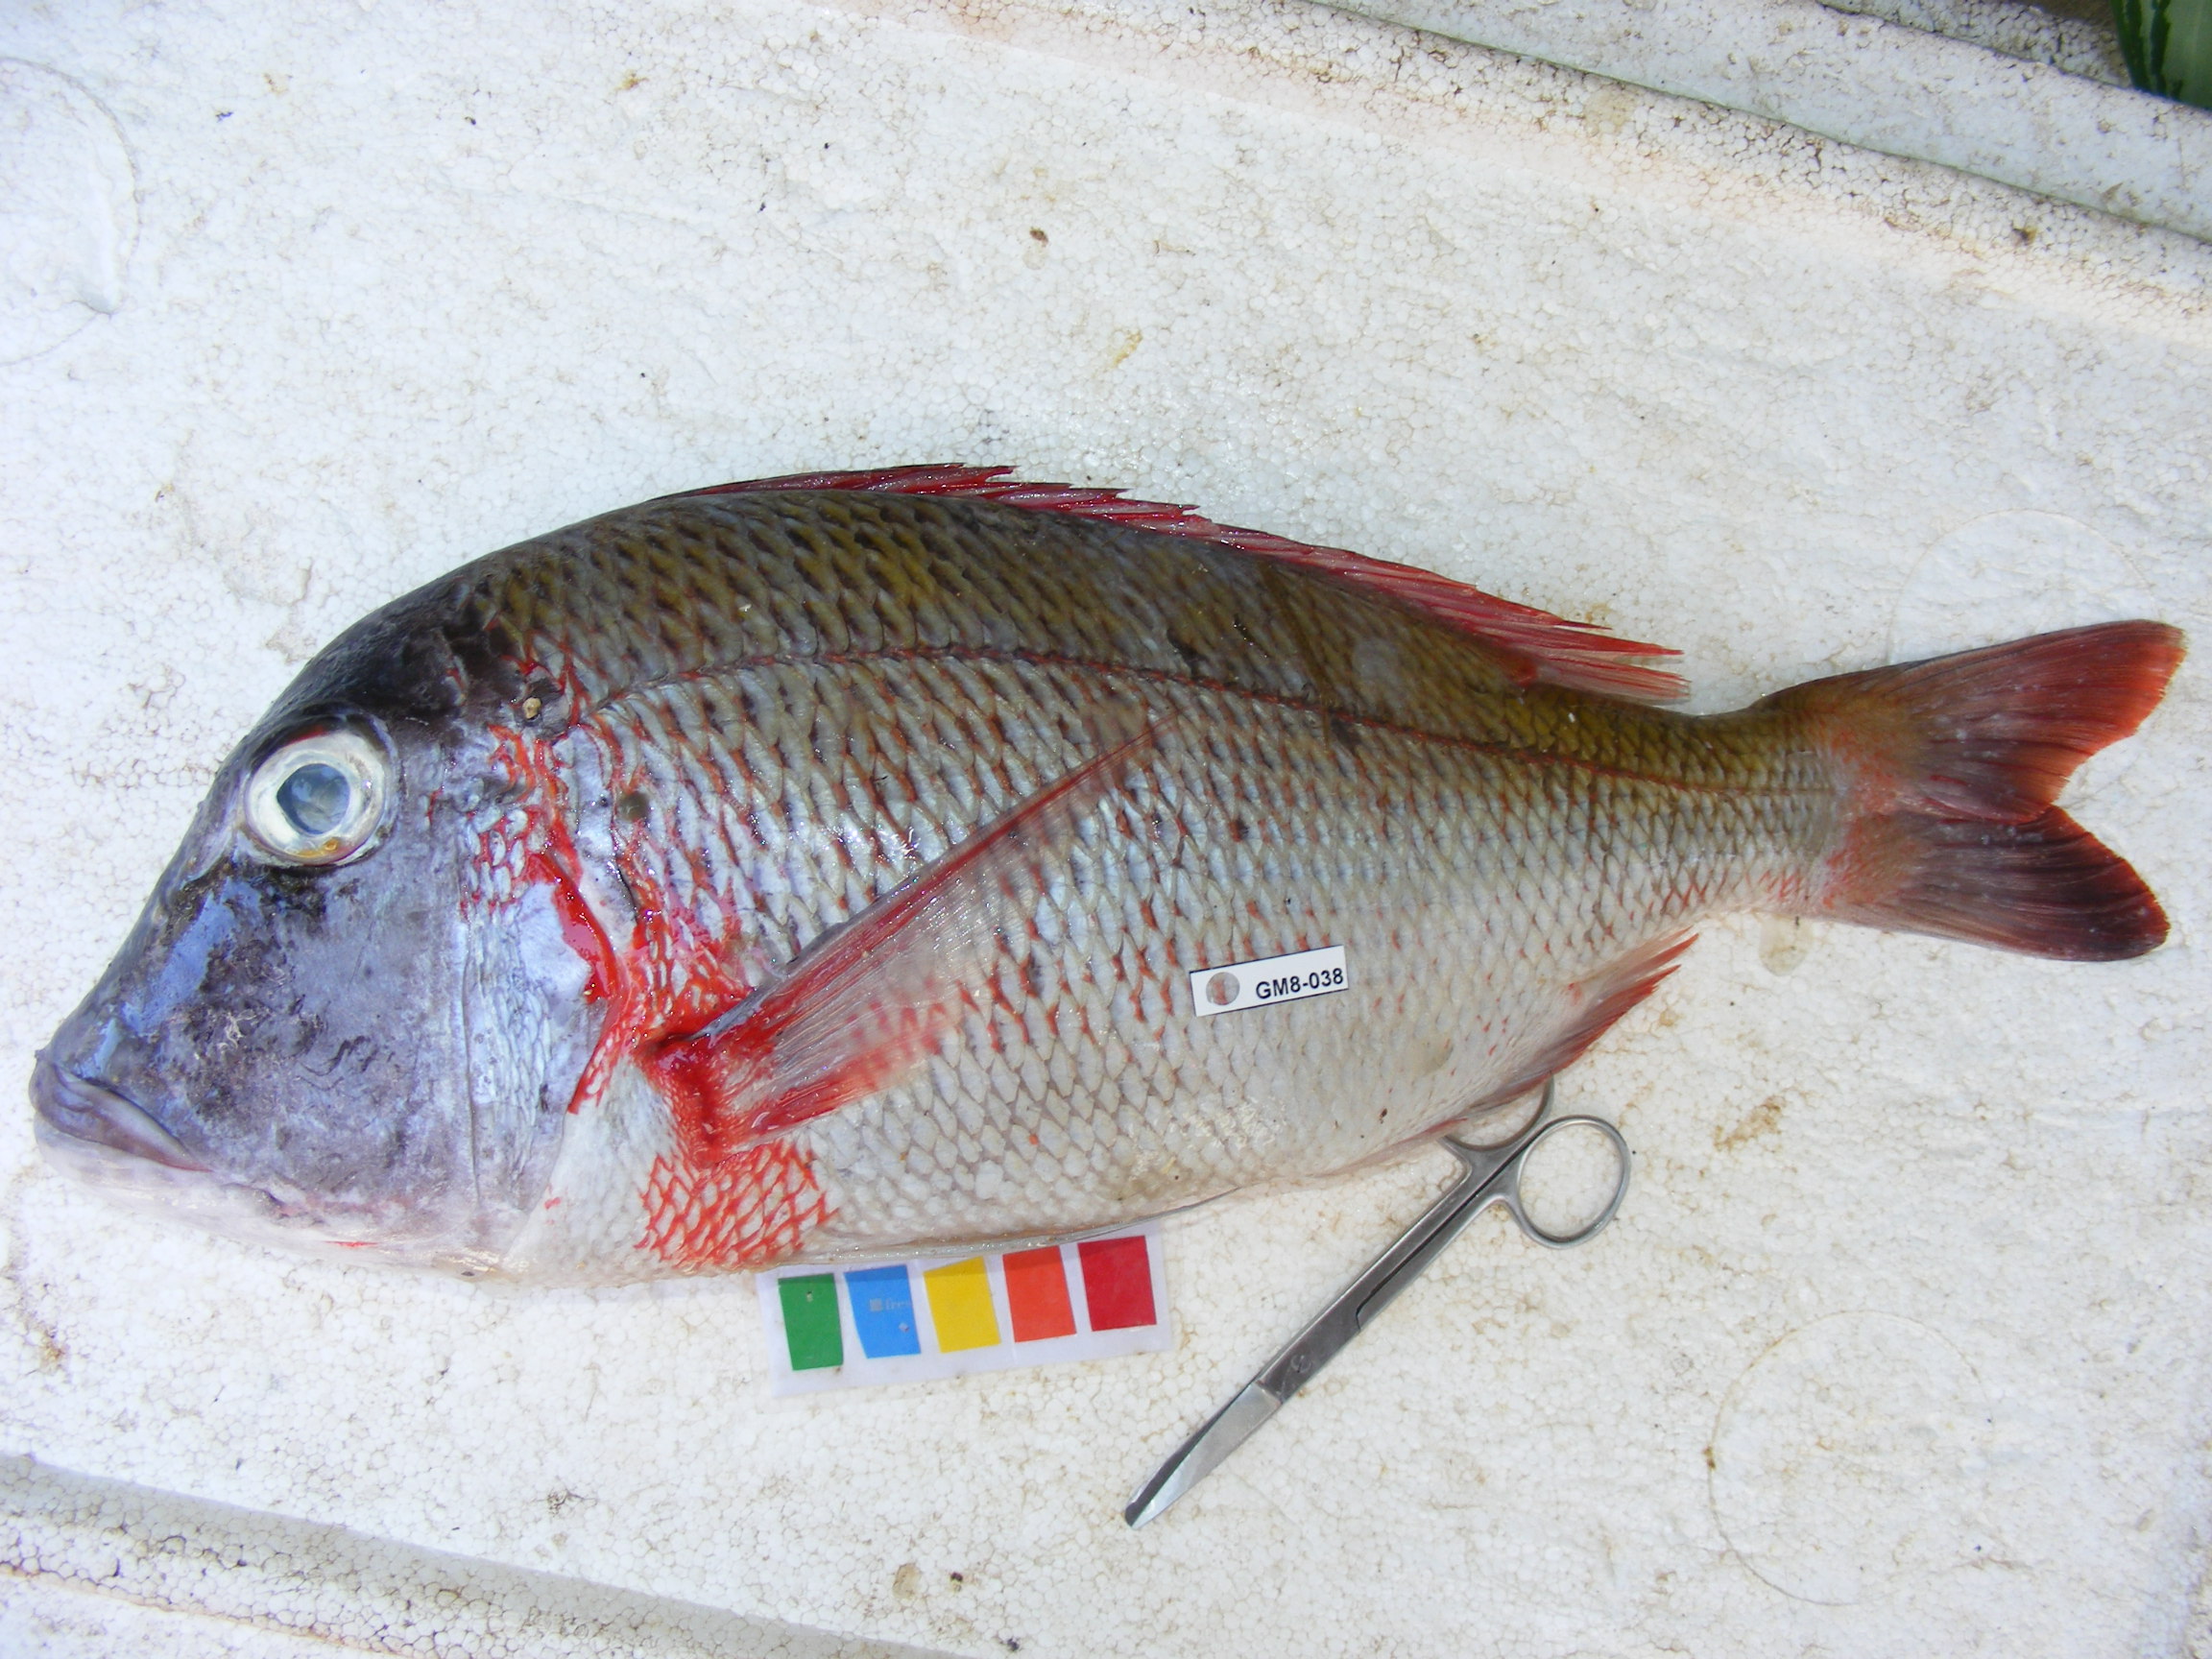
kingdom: Animalia
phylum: Chordata
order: Perciformes
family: Lethrinidae
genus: Lethrinus
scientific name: Lethrinus mahsena
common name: Sky emperor
